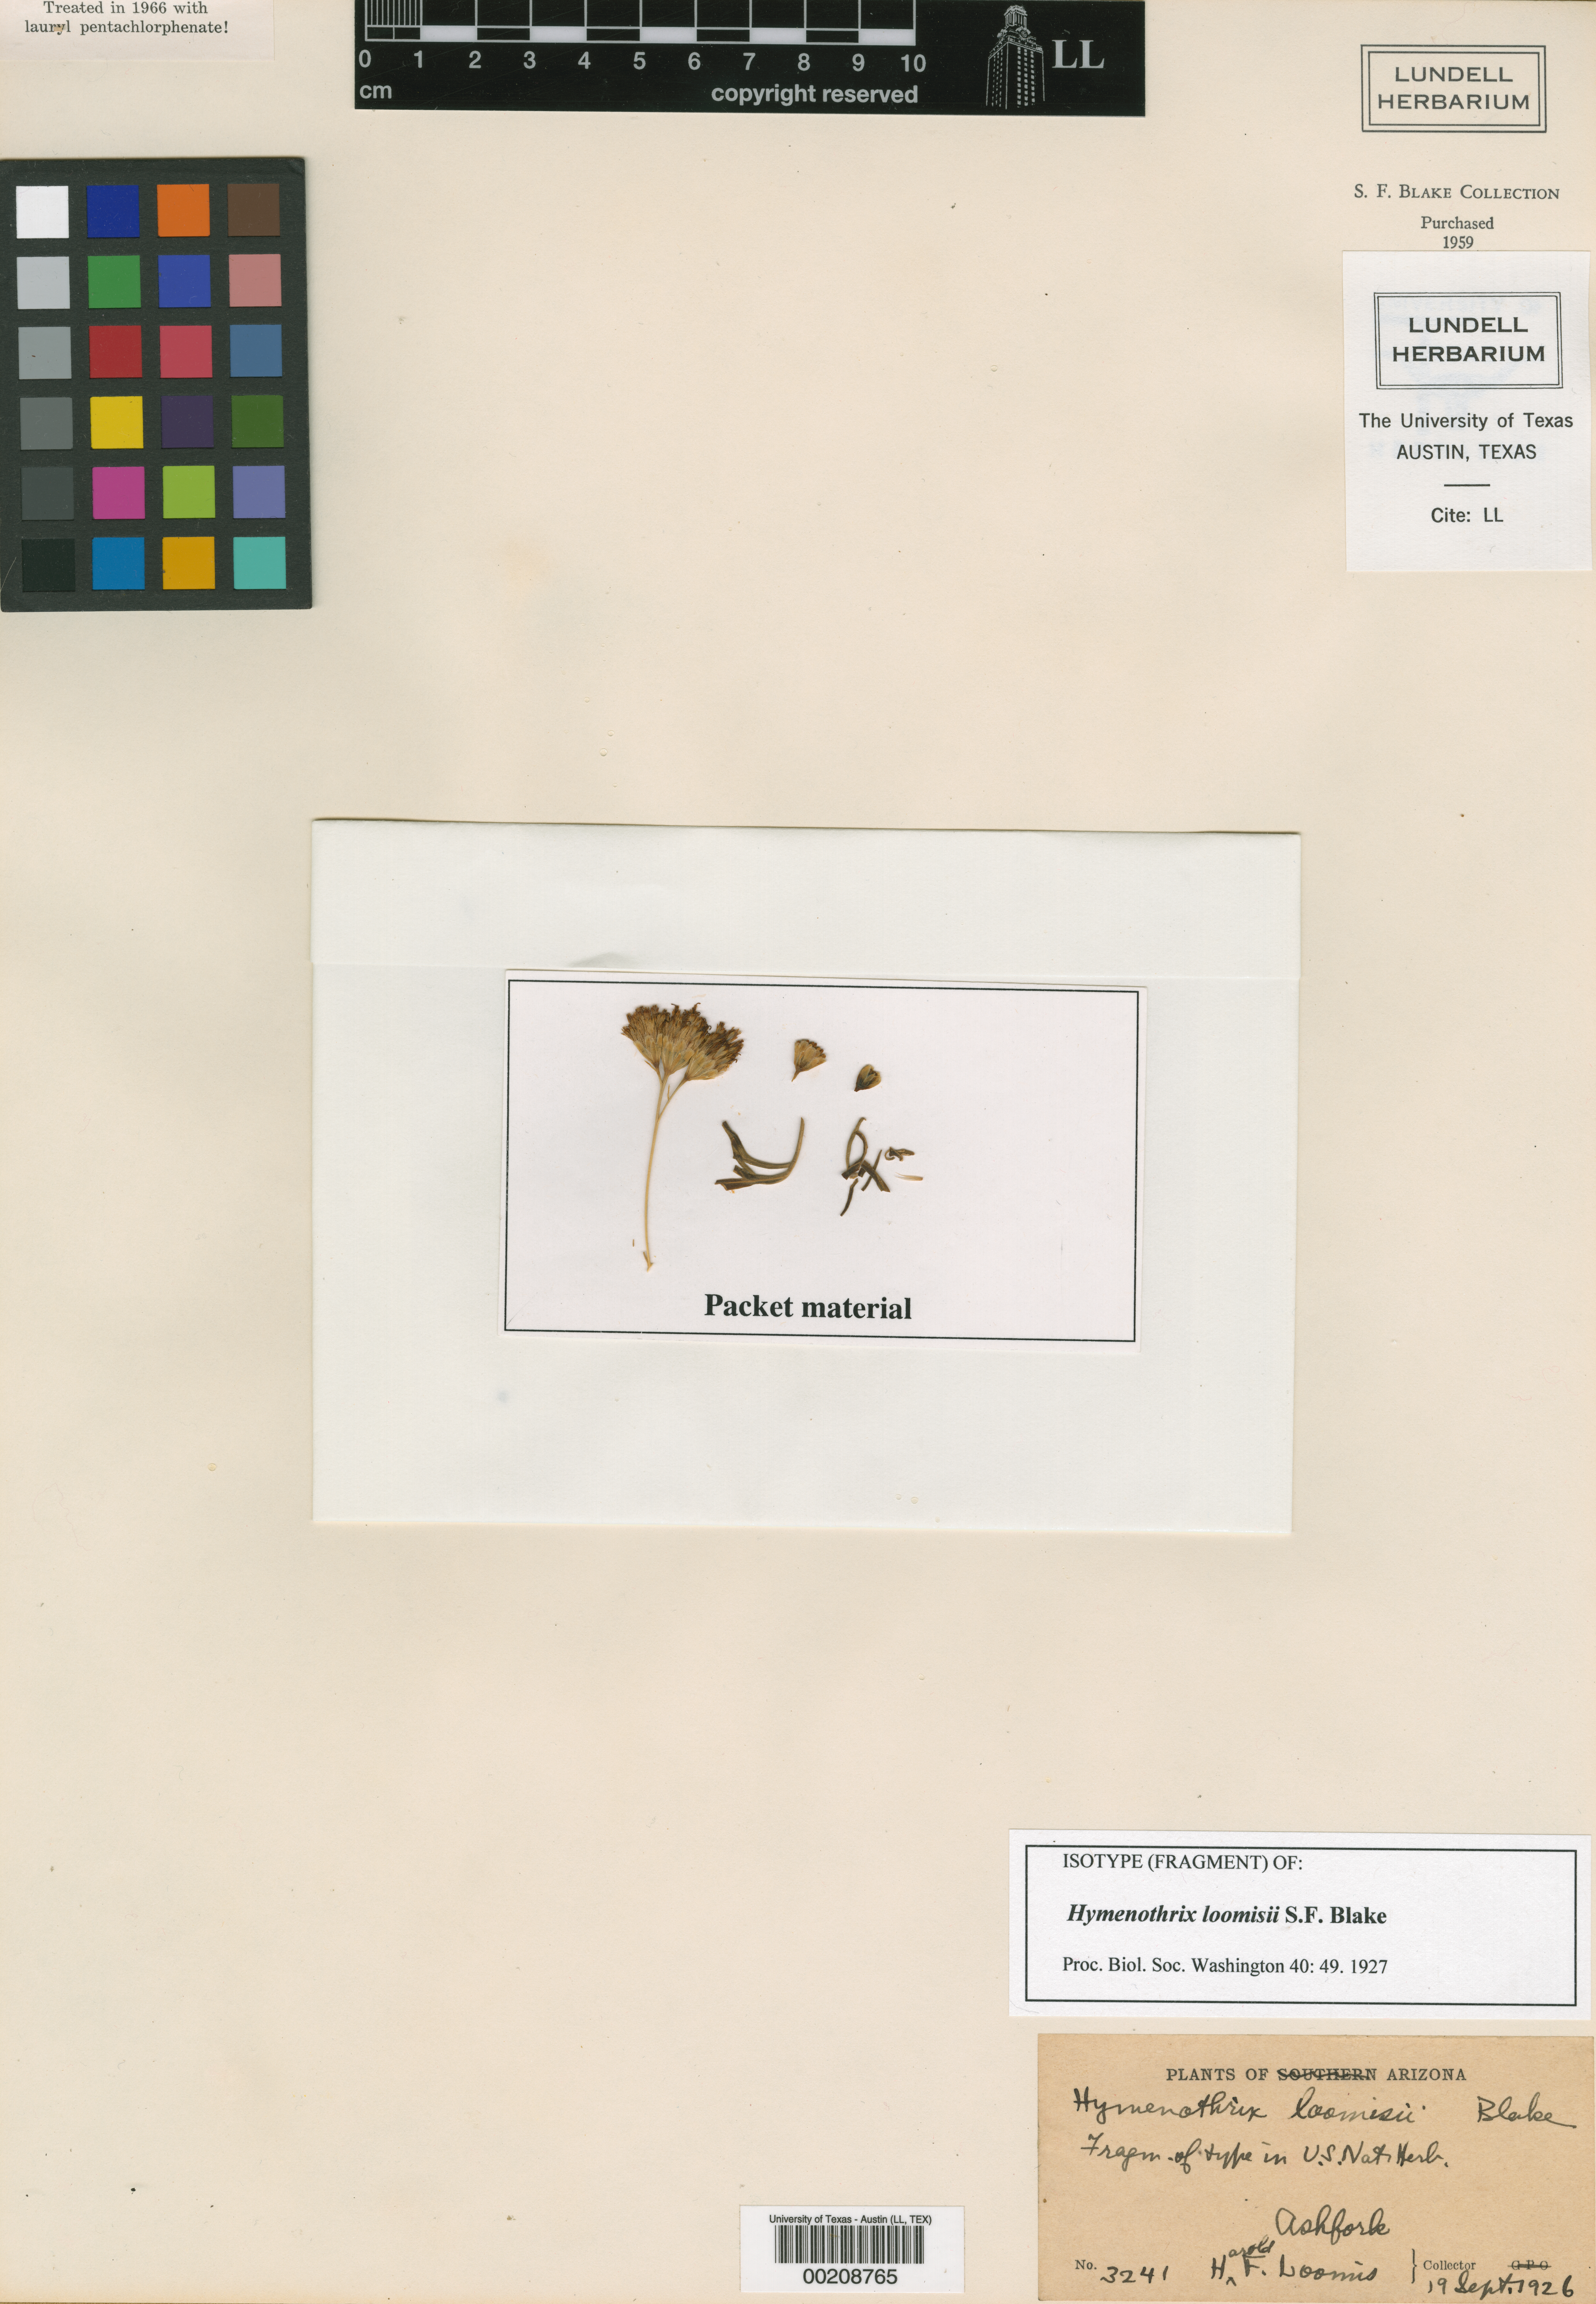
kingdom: Plantae
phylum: Tracheophyta
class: Magnoliopsida
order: Malpighiales
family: Hypericaceae
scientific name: Hypericaceae
